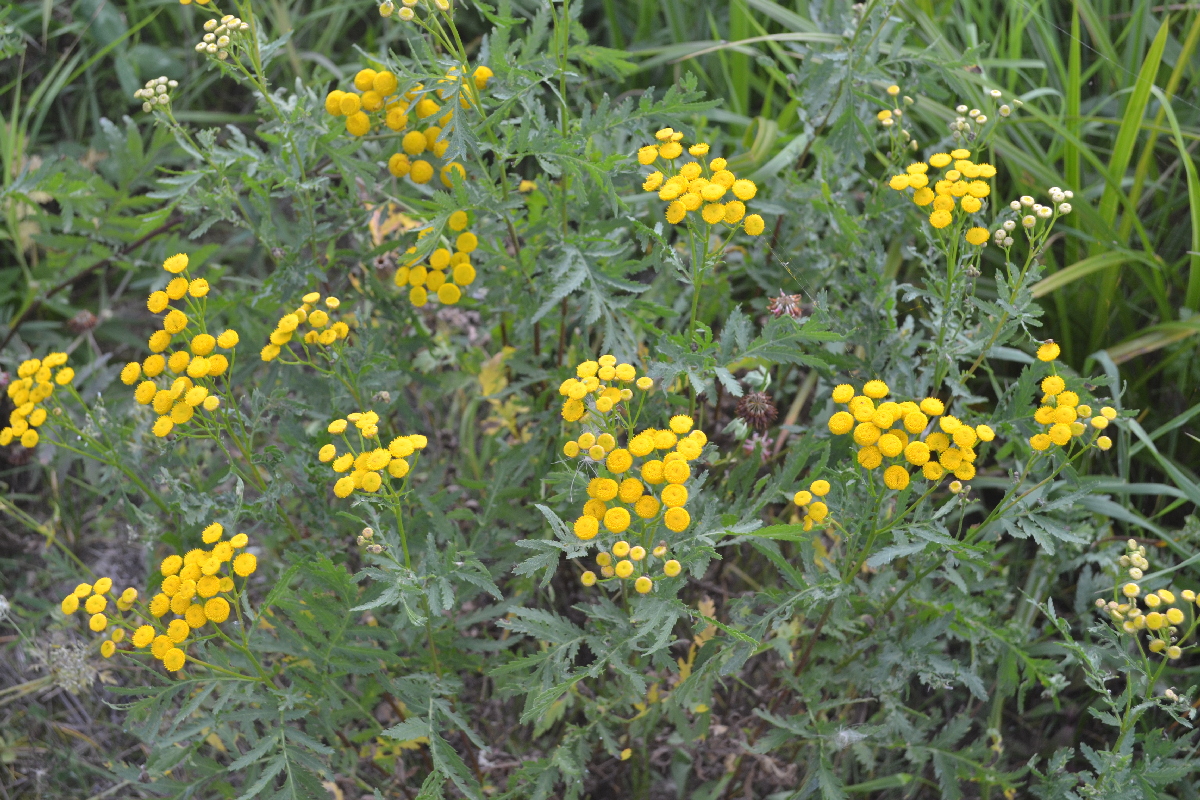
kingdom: Plantae
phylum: Tracheophyta
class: Magnoliopsida
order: Asterales
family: Asteraceae
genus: Tanacetum
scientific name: Tanacetum vulgare
